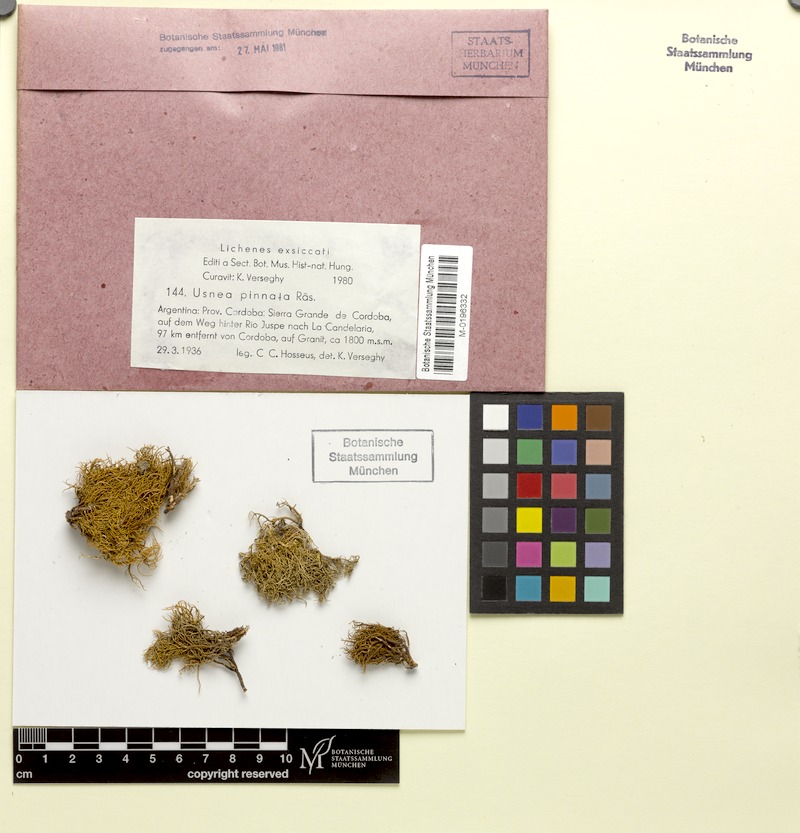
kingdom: Fungi
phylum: Ascomycota
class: Lecanoromycetes
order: Lecanorales
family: Parmeliaceae
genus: Usnea
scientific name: Usnea pinnata
